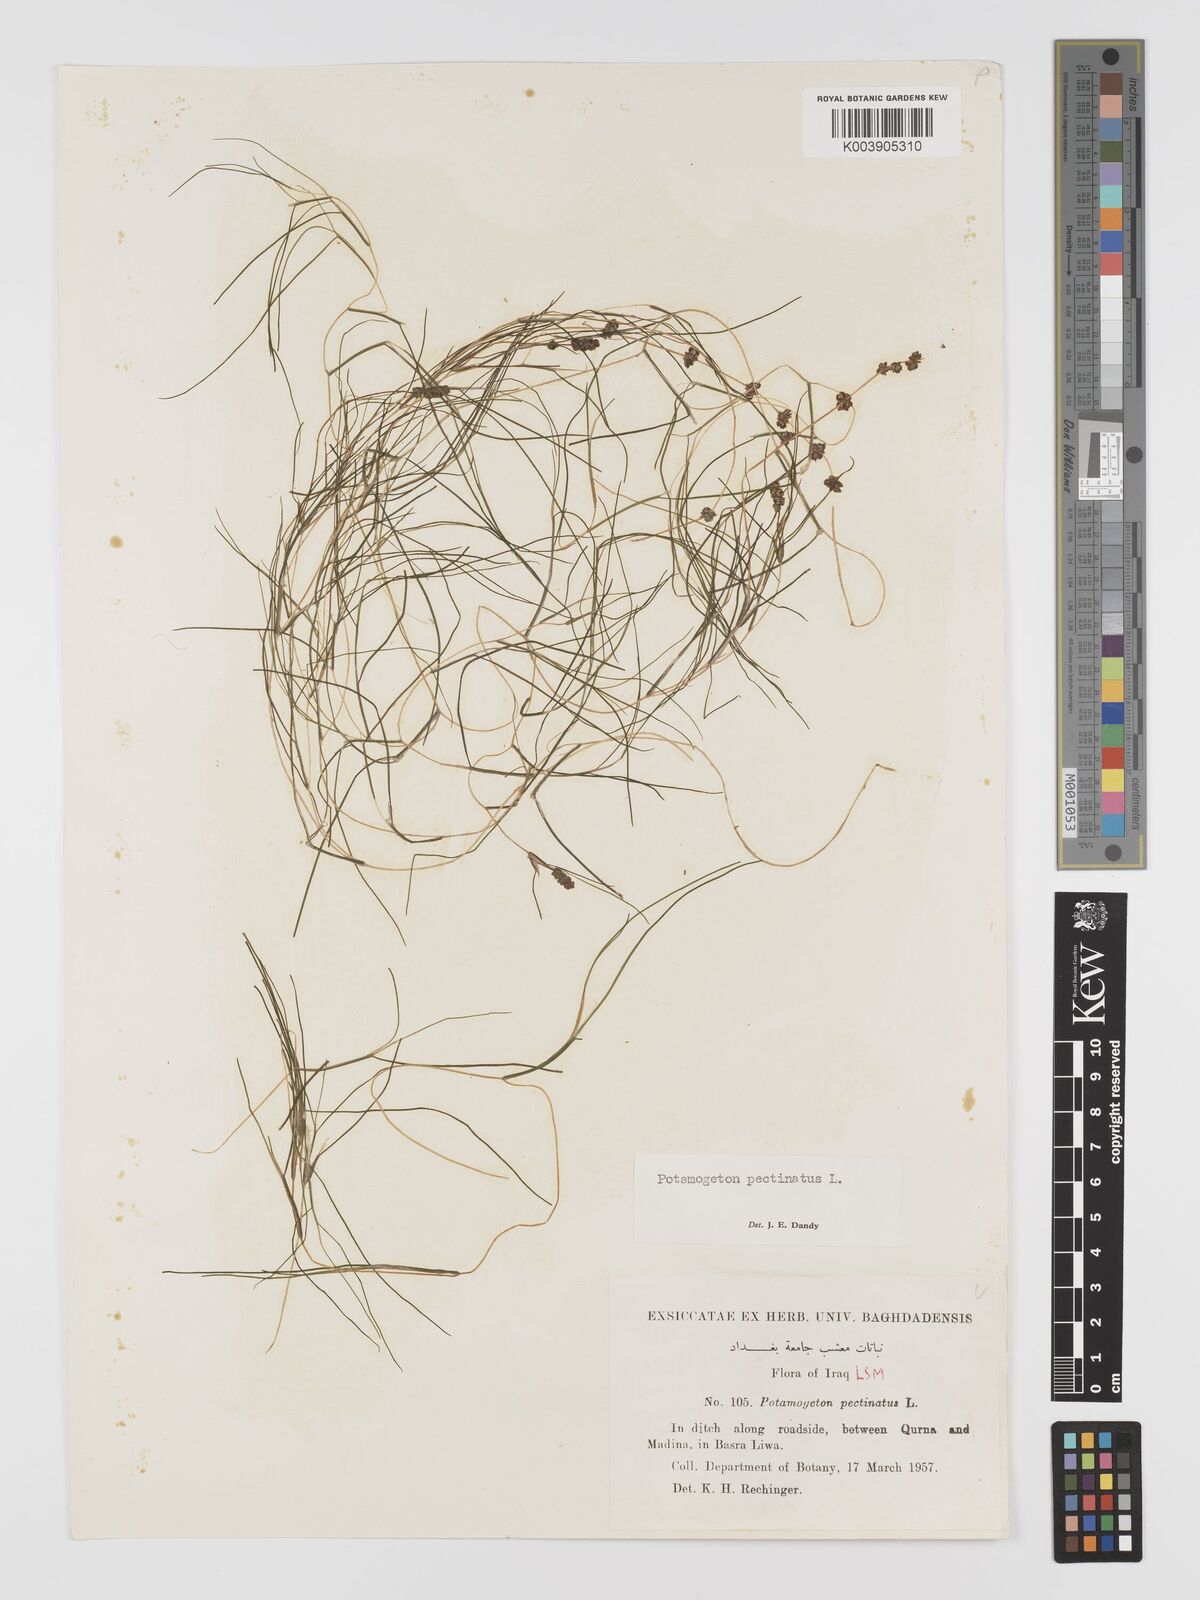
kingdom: Plantae
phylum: Tracheophyta
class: Liliopsida
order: Alismatales
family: Potamogetonaceae
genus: Stuckenia
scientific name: Stuckenia pectinata
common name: Sago pondweed
